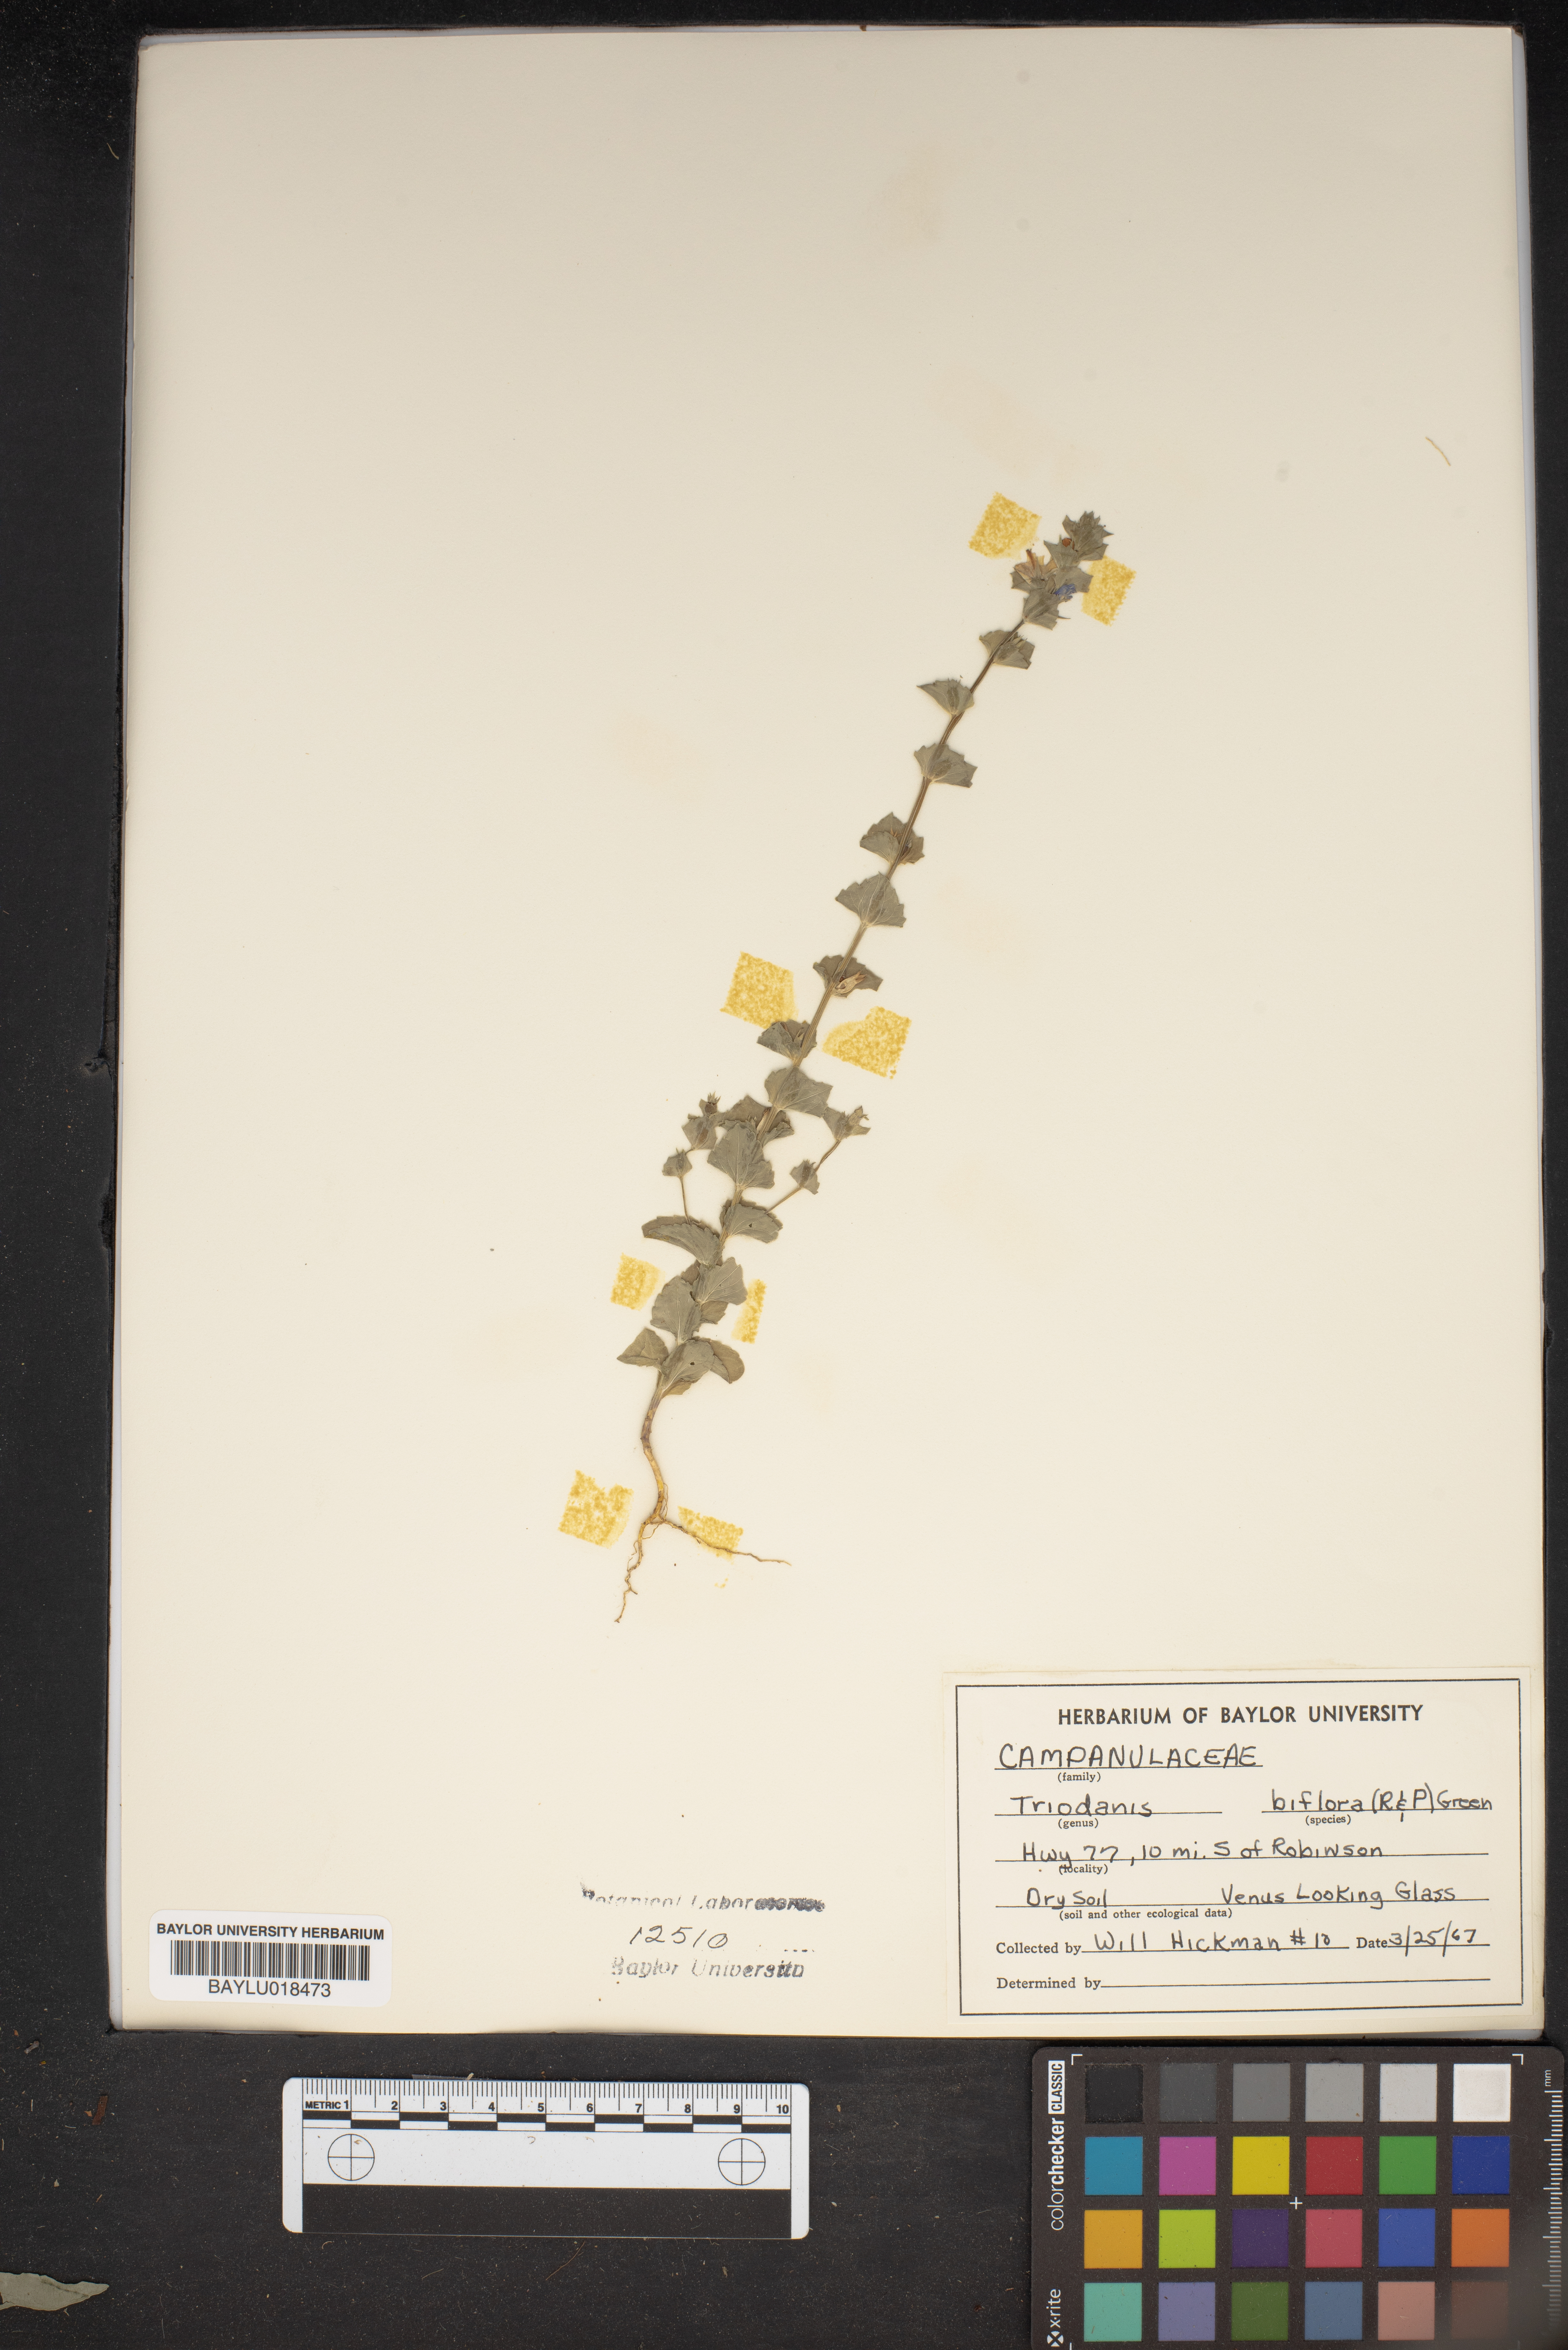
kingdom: Plantae
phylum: Tracheophyta
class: Magnoliopsida
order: Asterales
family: Campanulaceae
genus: Triodanis
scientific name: Triodanis perfoliata
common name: Clasping venus' looking-glass
